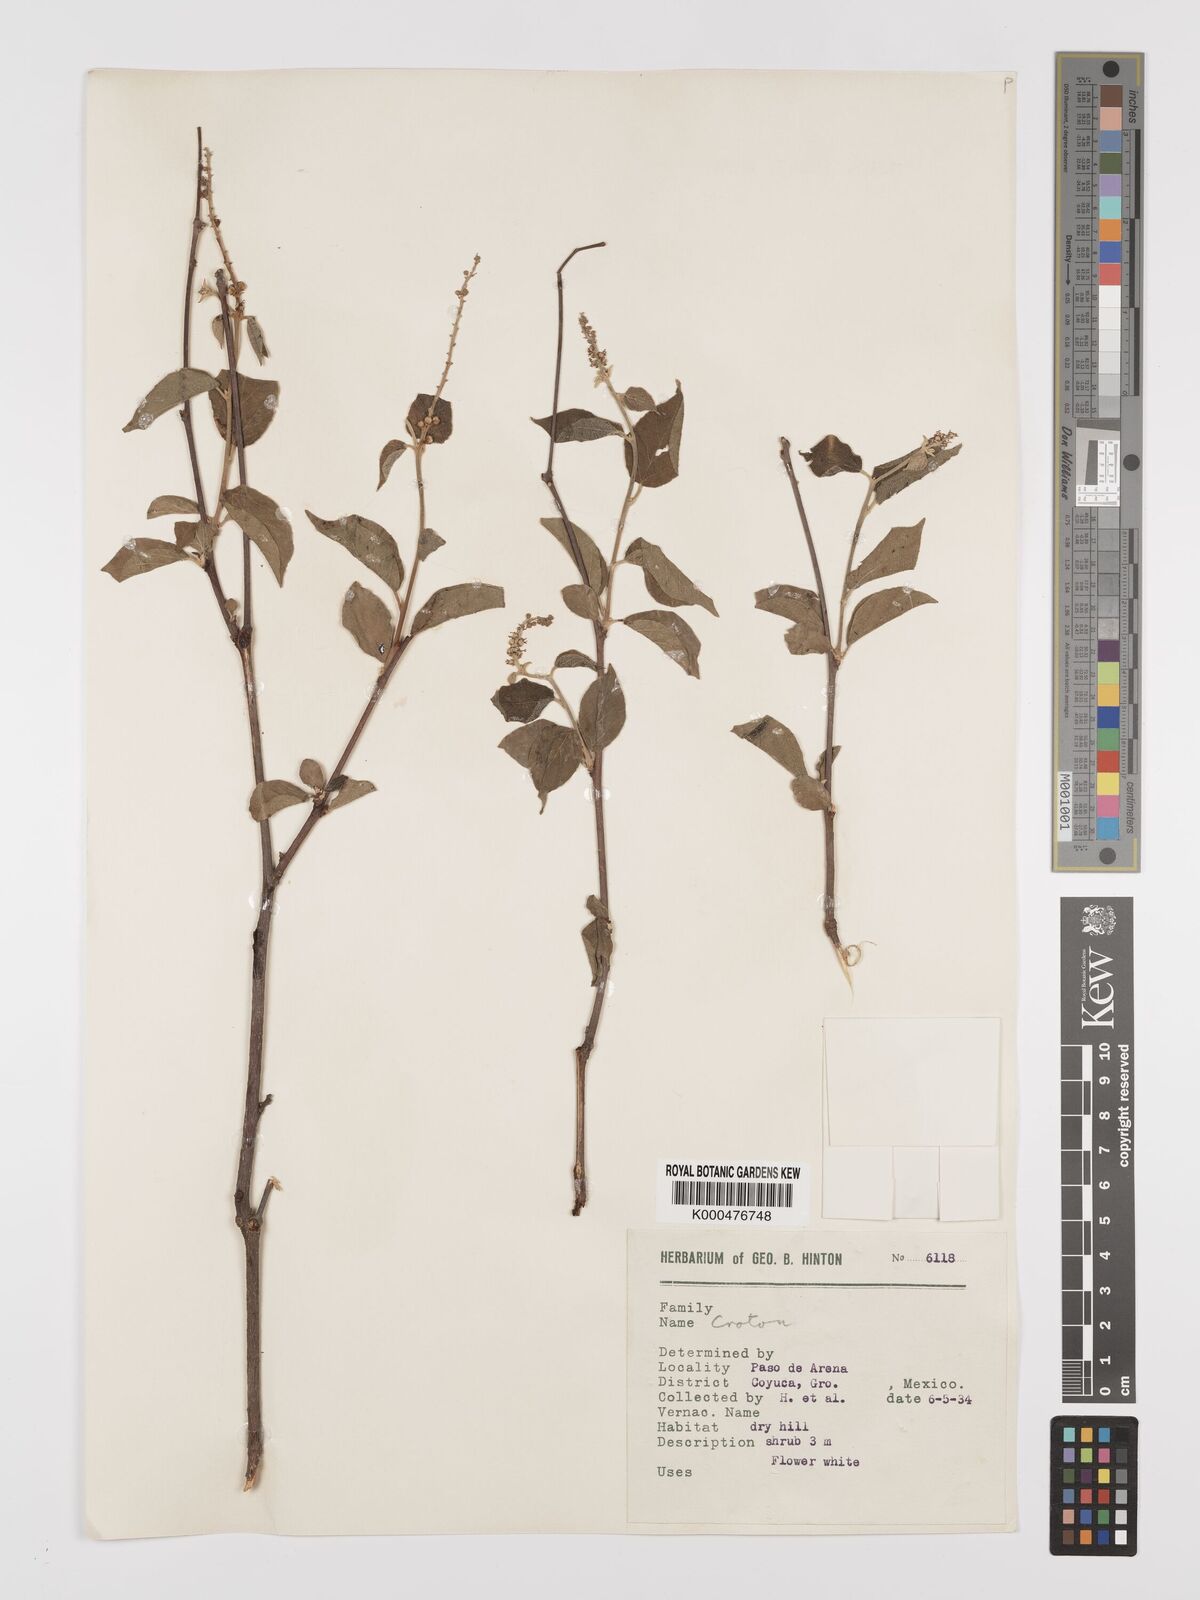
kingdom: Plantae
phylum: Tracheophyta
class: Magnoliopsida
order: Malpighiales
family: Euphorbiaceae
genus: Croton
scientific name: Croton
